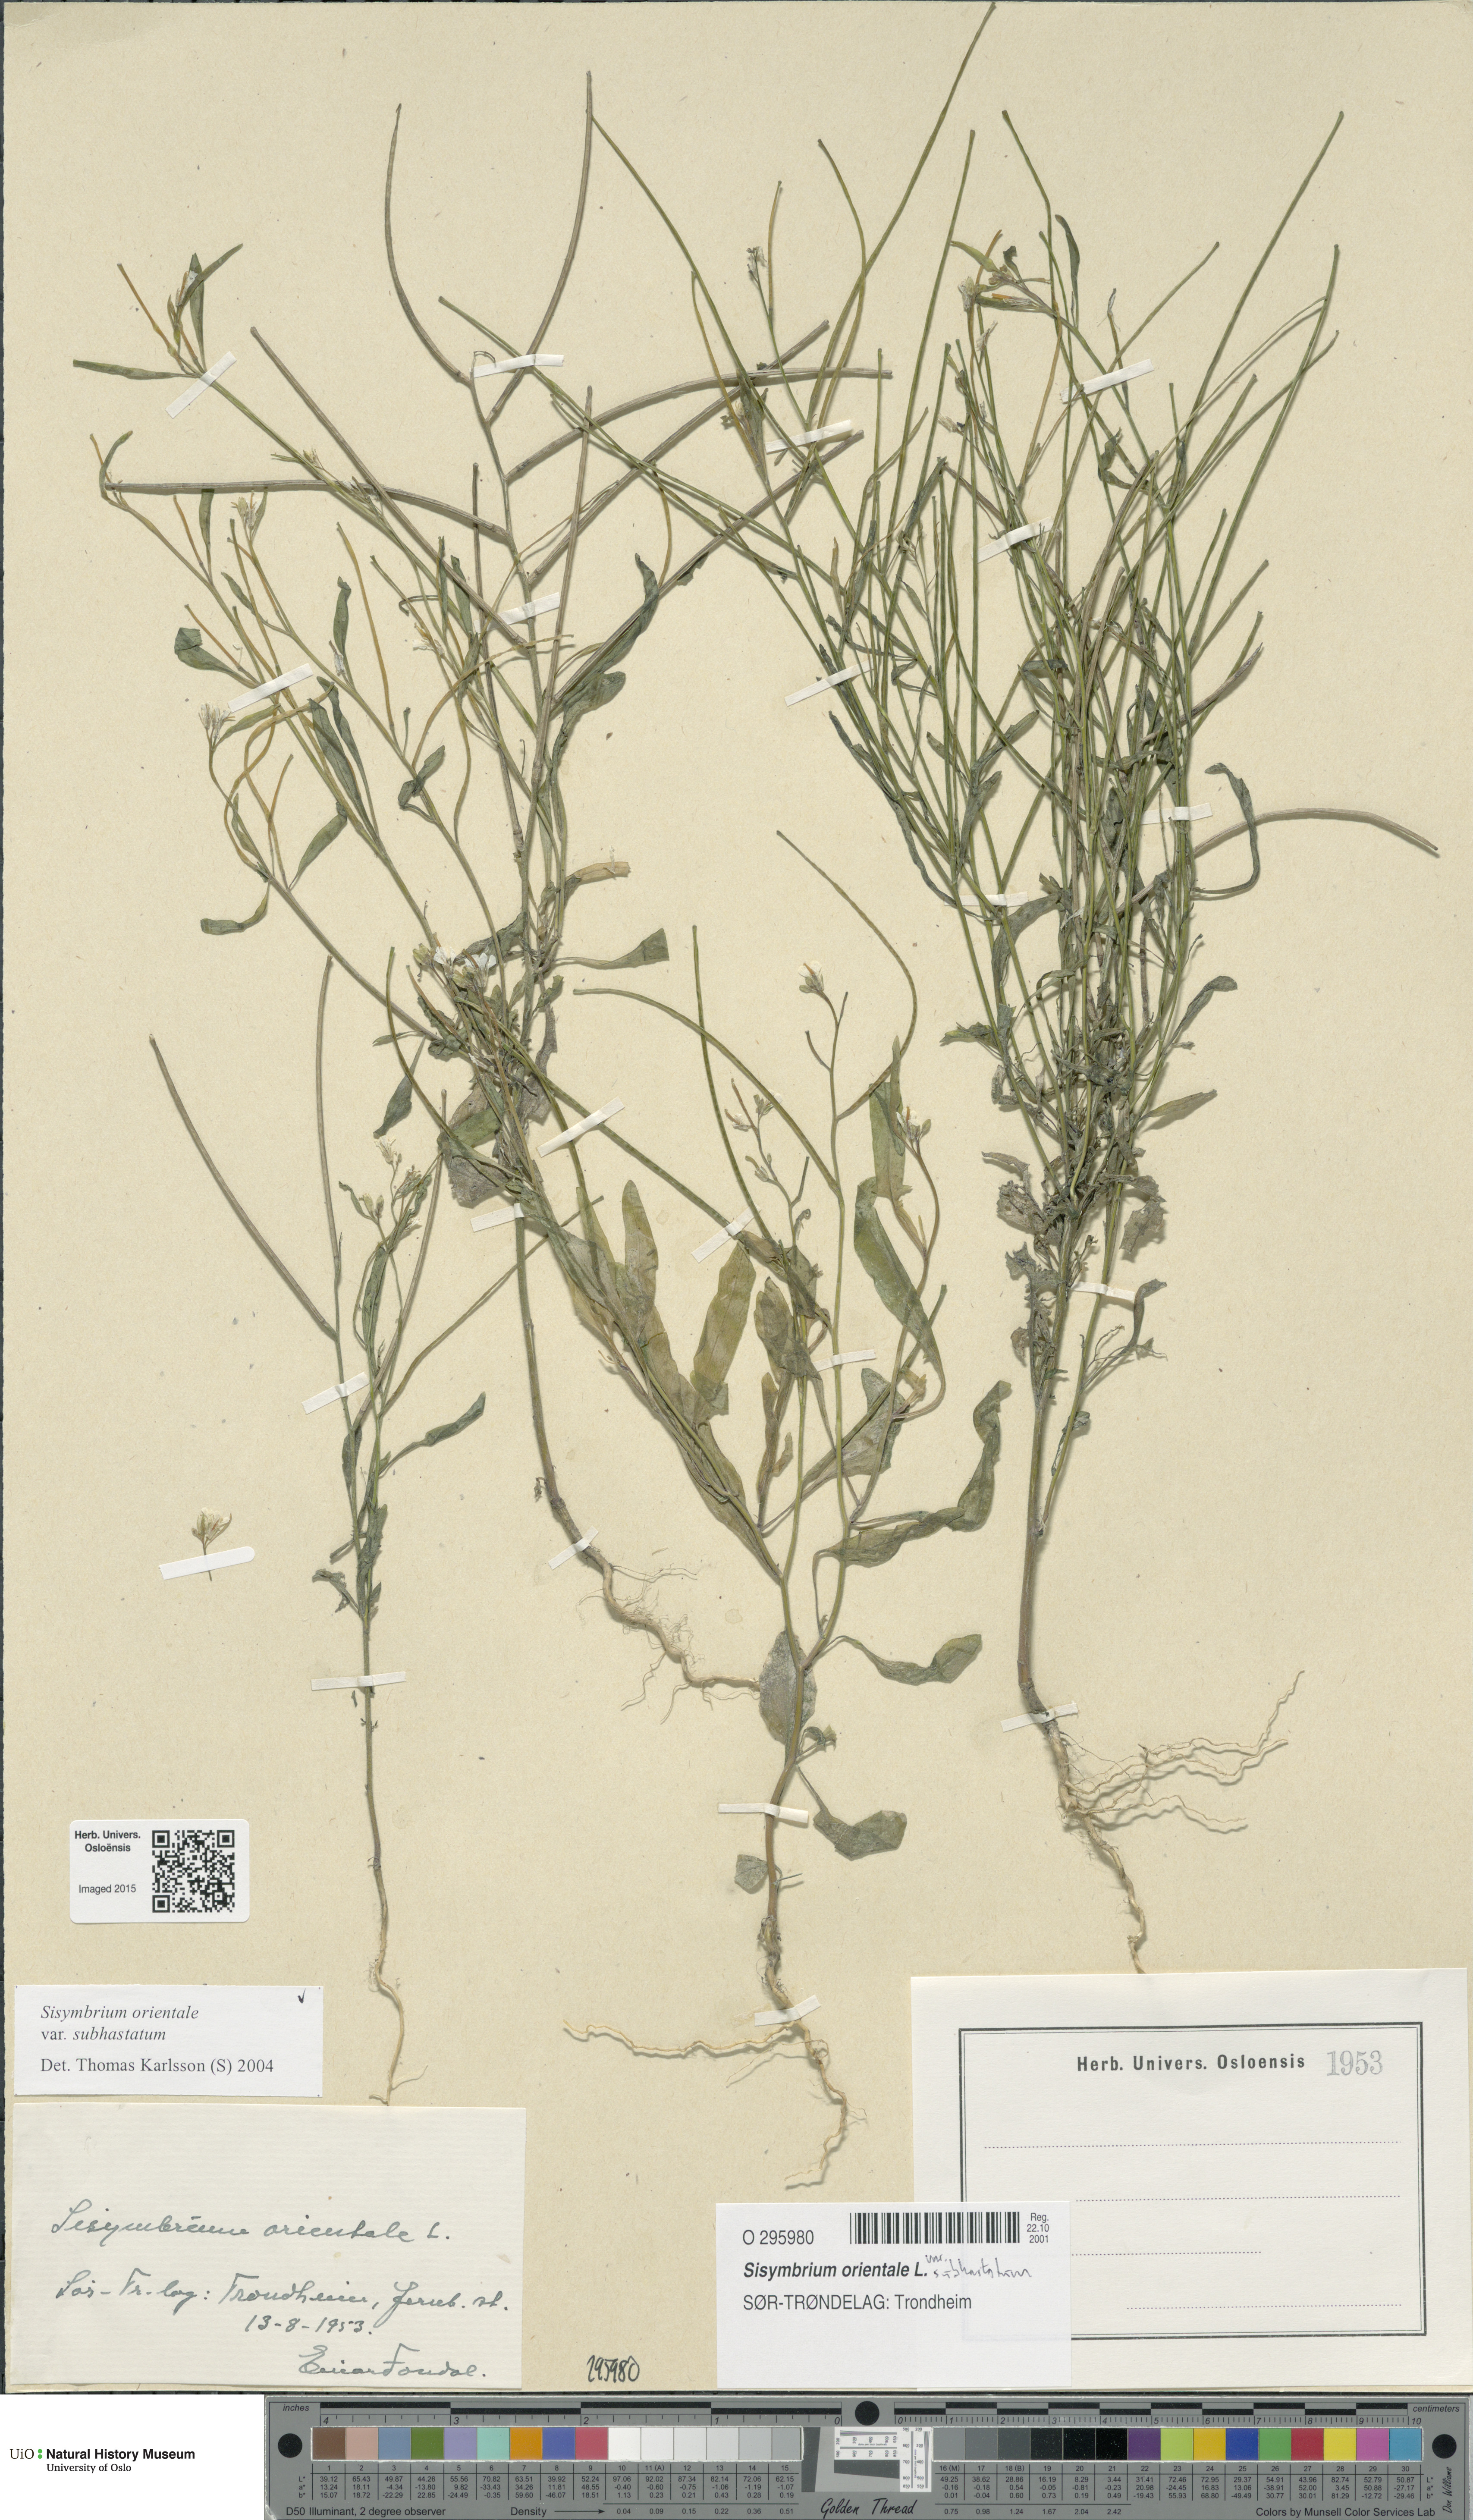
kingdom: Plantae
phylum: Tracheophyta
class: Magnoliopsida
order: Brassicales
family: Brassicaceae
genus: Sisymbrium
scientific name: Sisymbrium orientale
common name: Eastern rocket
